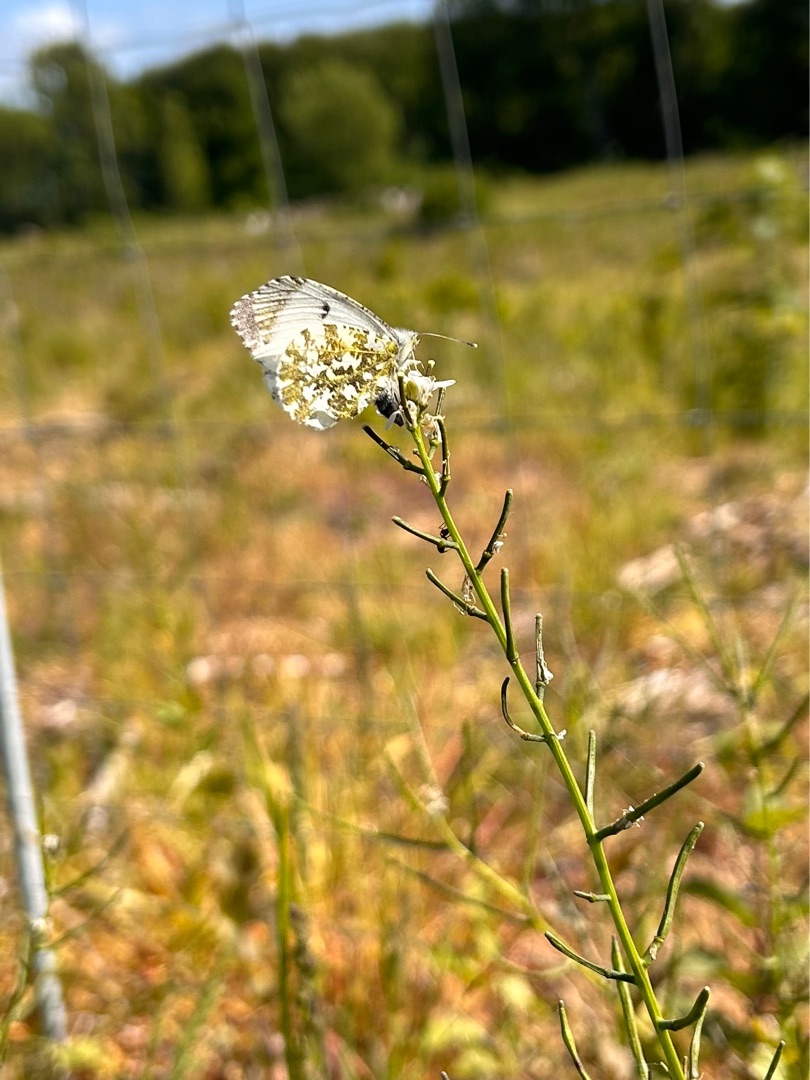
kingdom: Animalia
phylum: Arthropoda
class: Insecta
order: Lepidoptera
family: Pieridae
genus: Anthocharis
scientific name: Anthocharis cardamines
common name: Aurora
